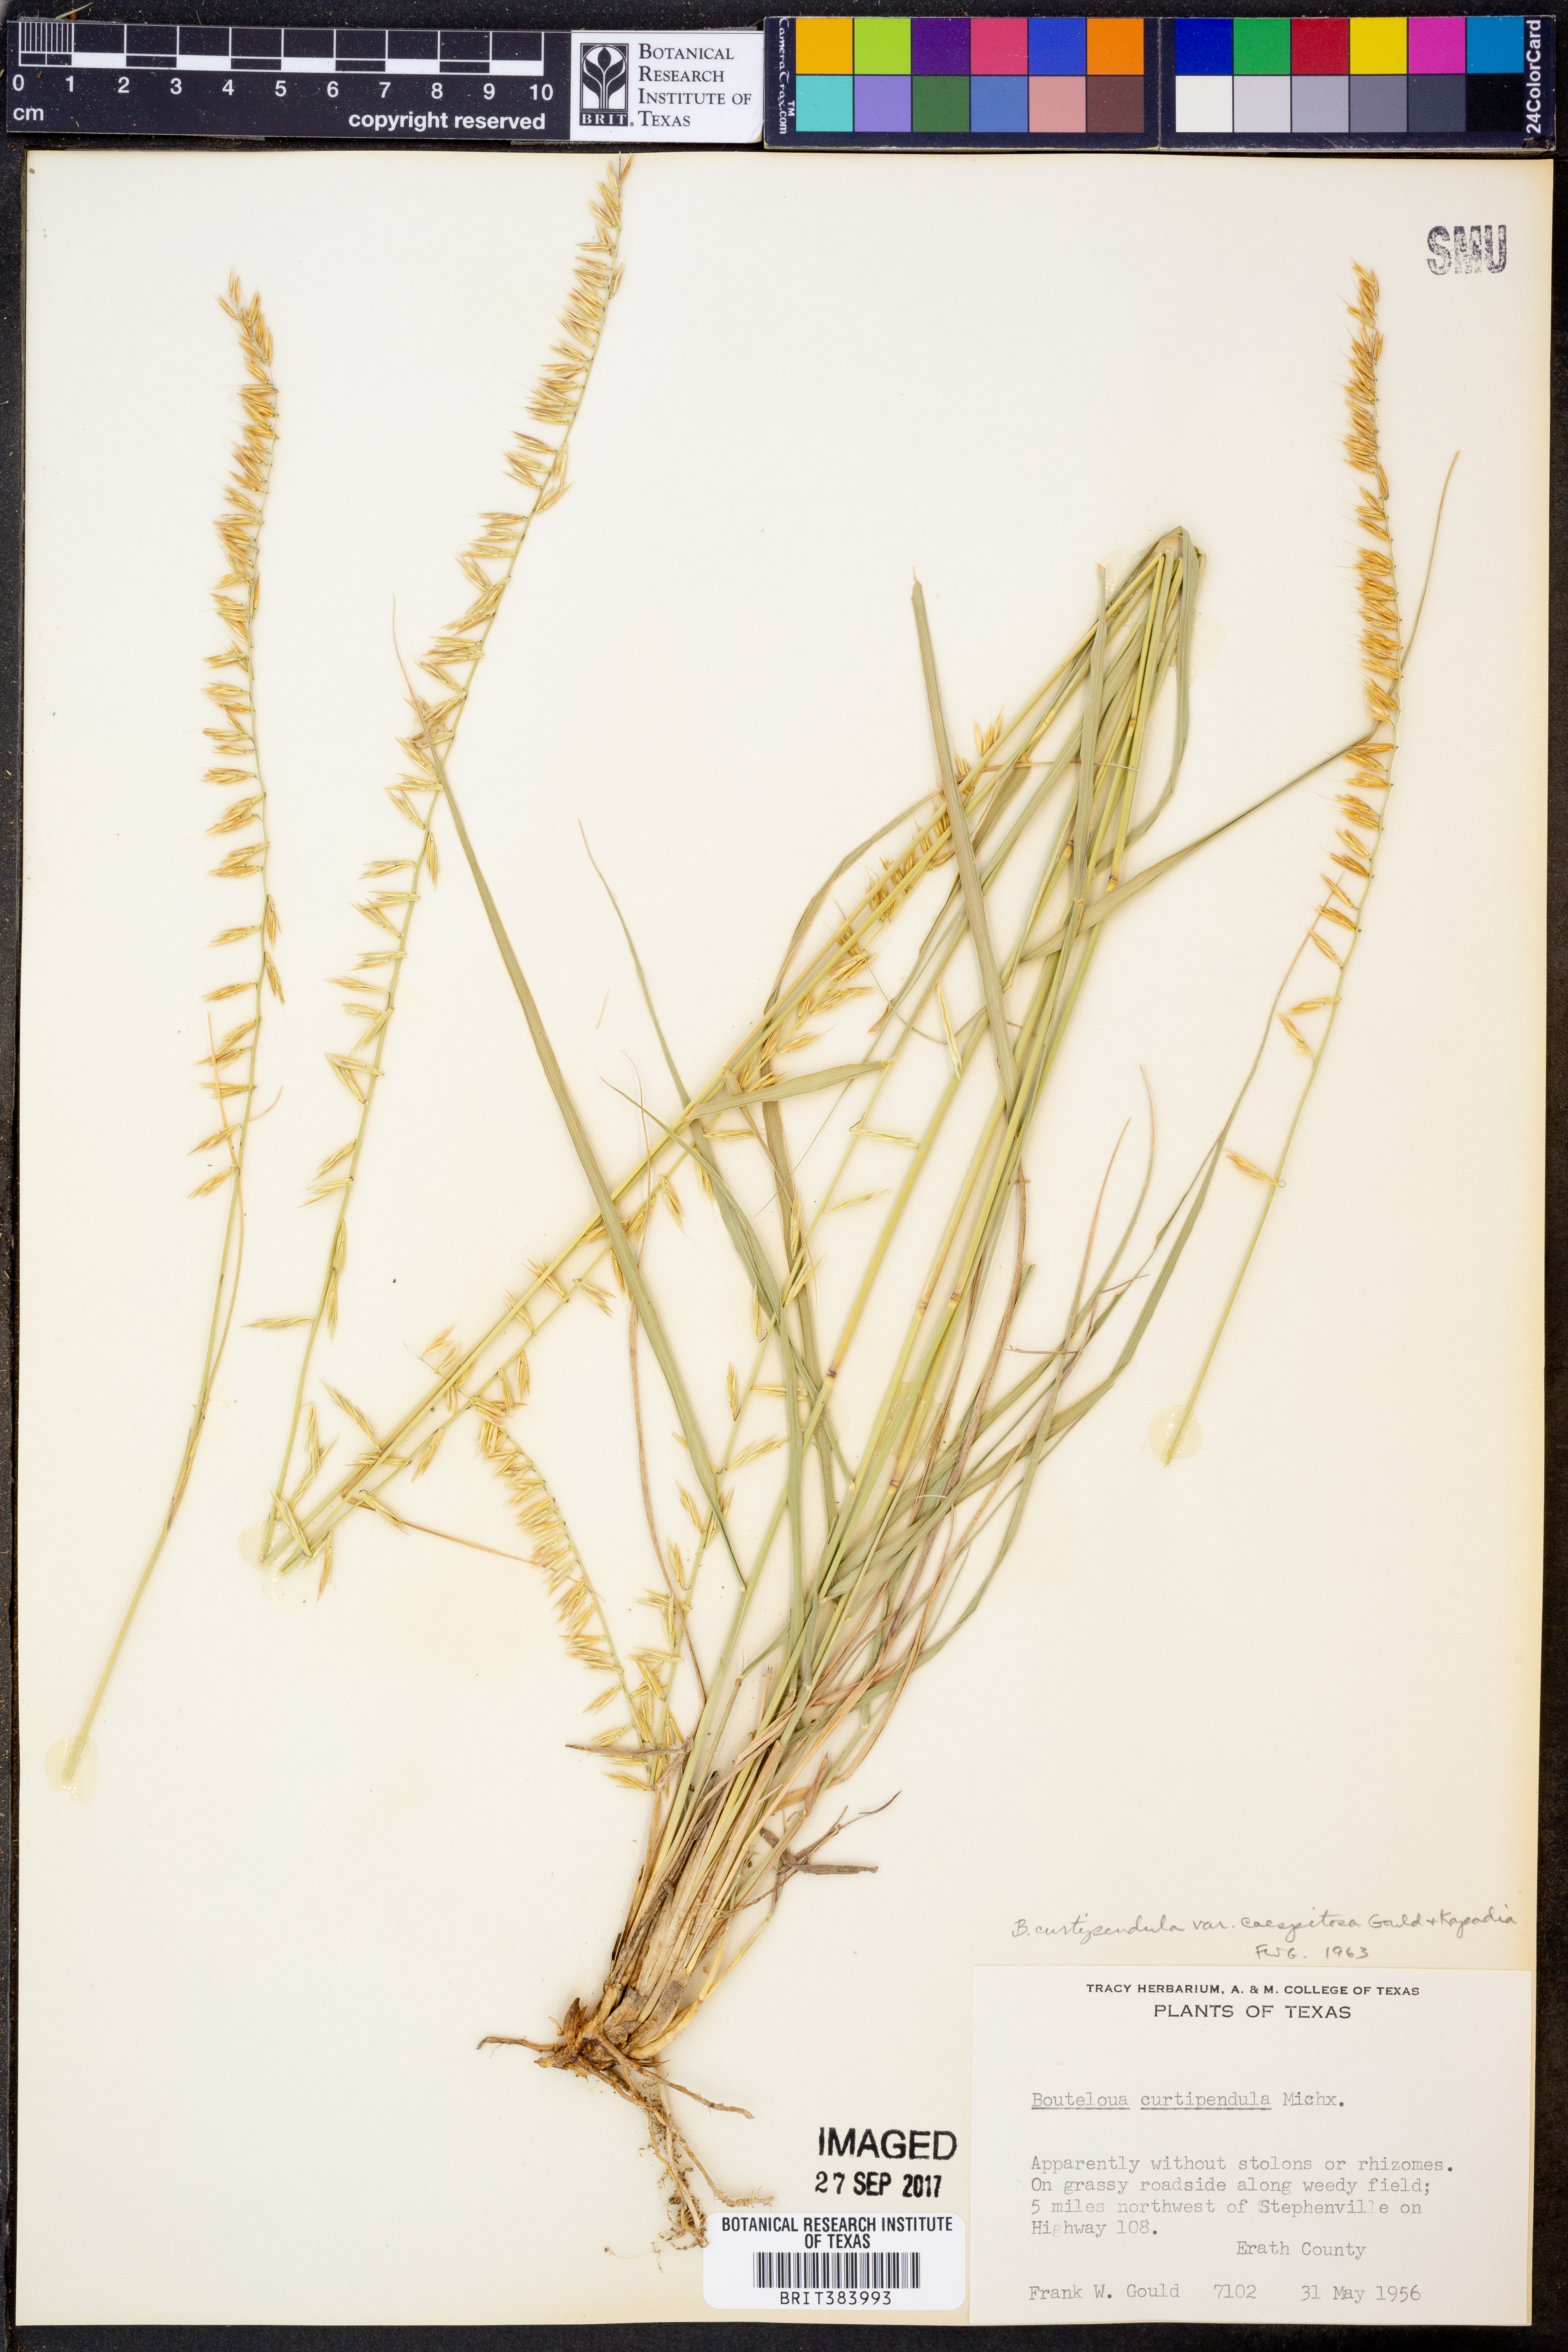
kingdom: Plantae
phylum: Tracheophyta
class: Liliopsida
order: Poales
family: Poaceae
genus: Bouteloua
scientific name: Bouteloua curtipendula
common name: Side-oats grama
